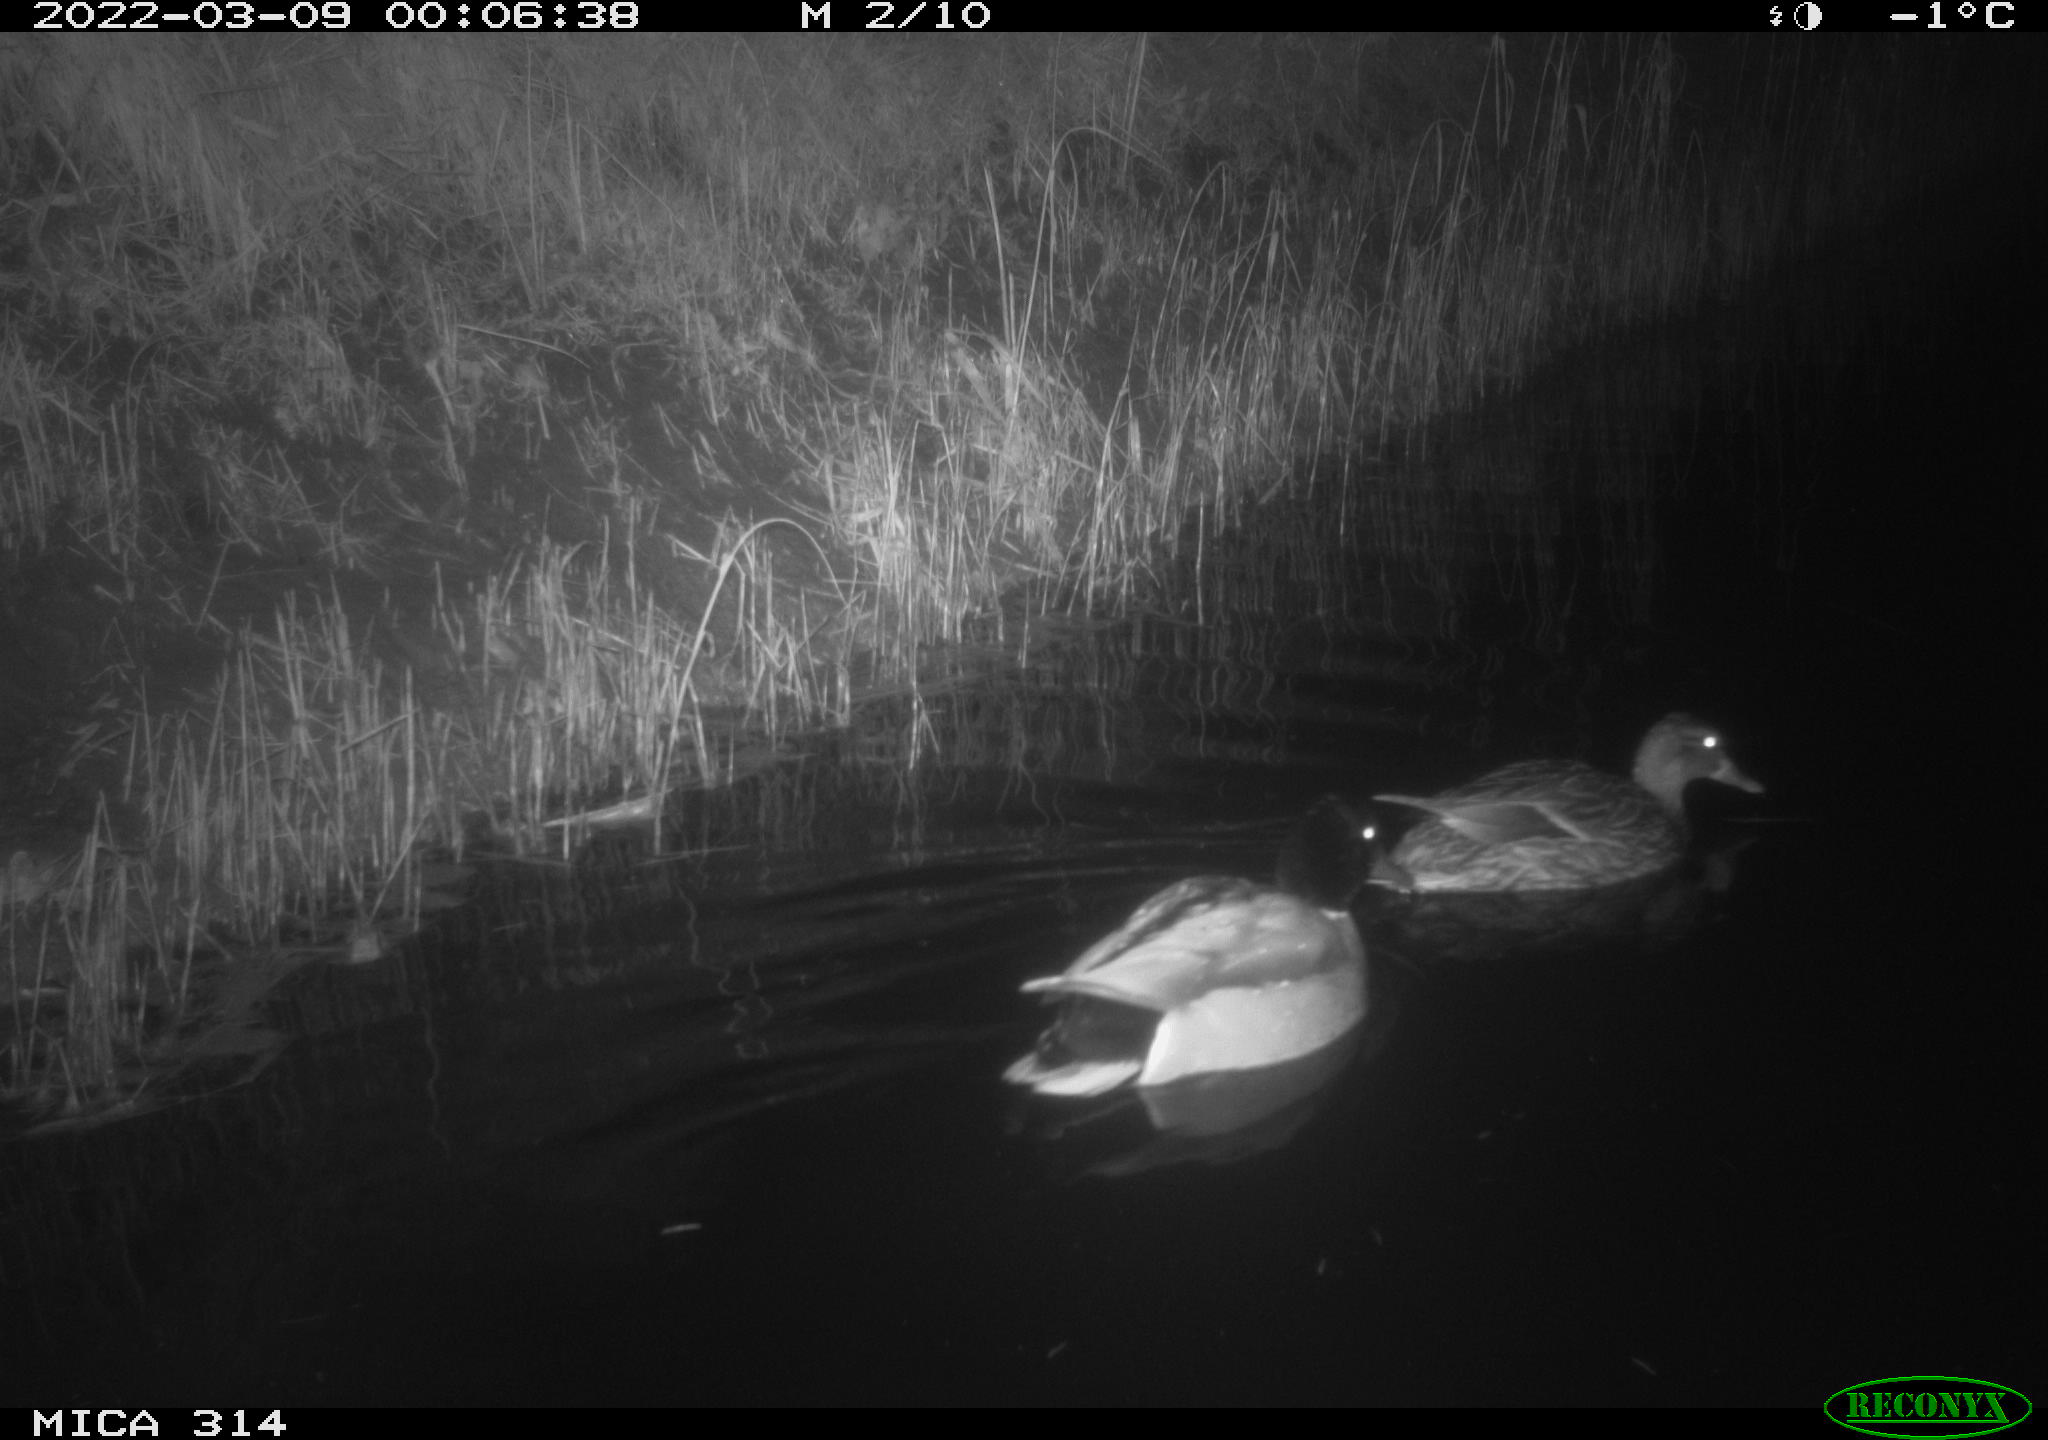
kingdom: Animalia
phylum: Chordata
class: Aves
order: Anseriformes
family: Anatidae
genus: Anas
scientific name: Anas platyrhynchos
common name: Mallard
